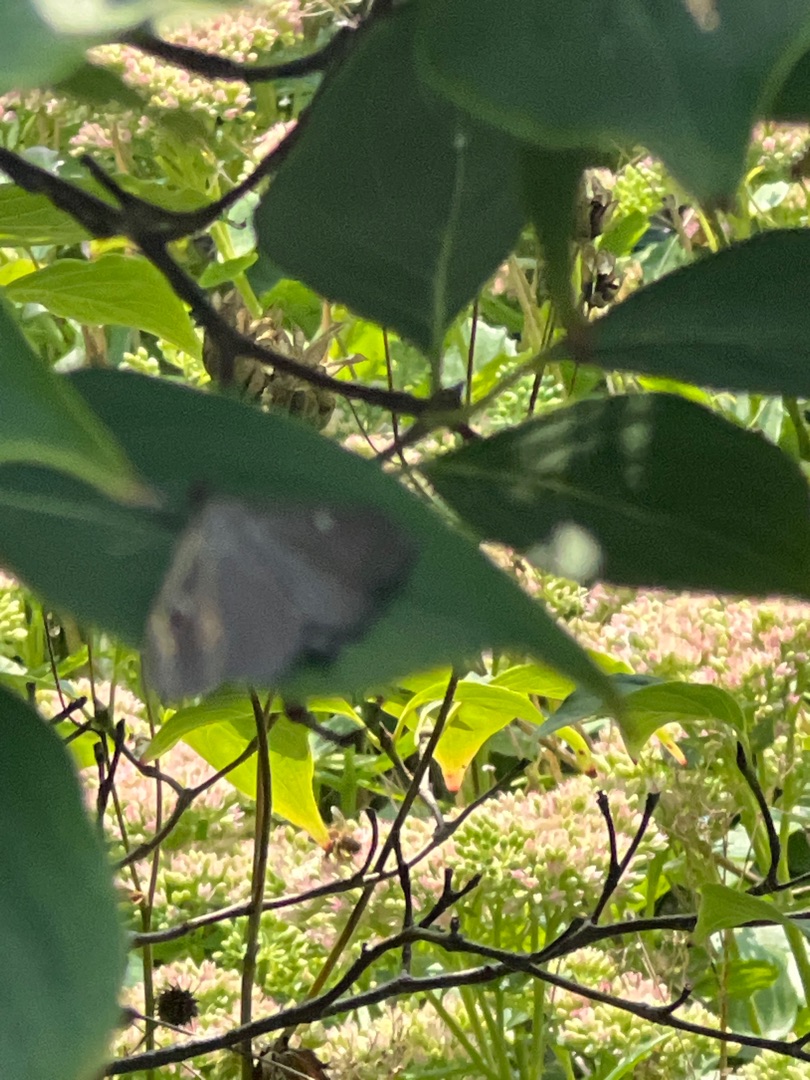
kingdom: Animalia
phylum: Arthropoda
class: Insecta
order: Lepidoptera
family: Crambidae
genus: Cydalima
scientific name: Cydalima perspectalis
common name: Buksbomhalvmøl
